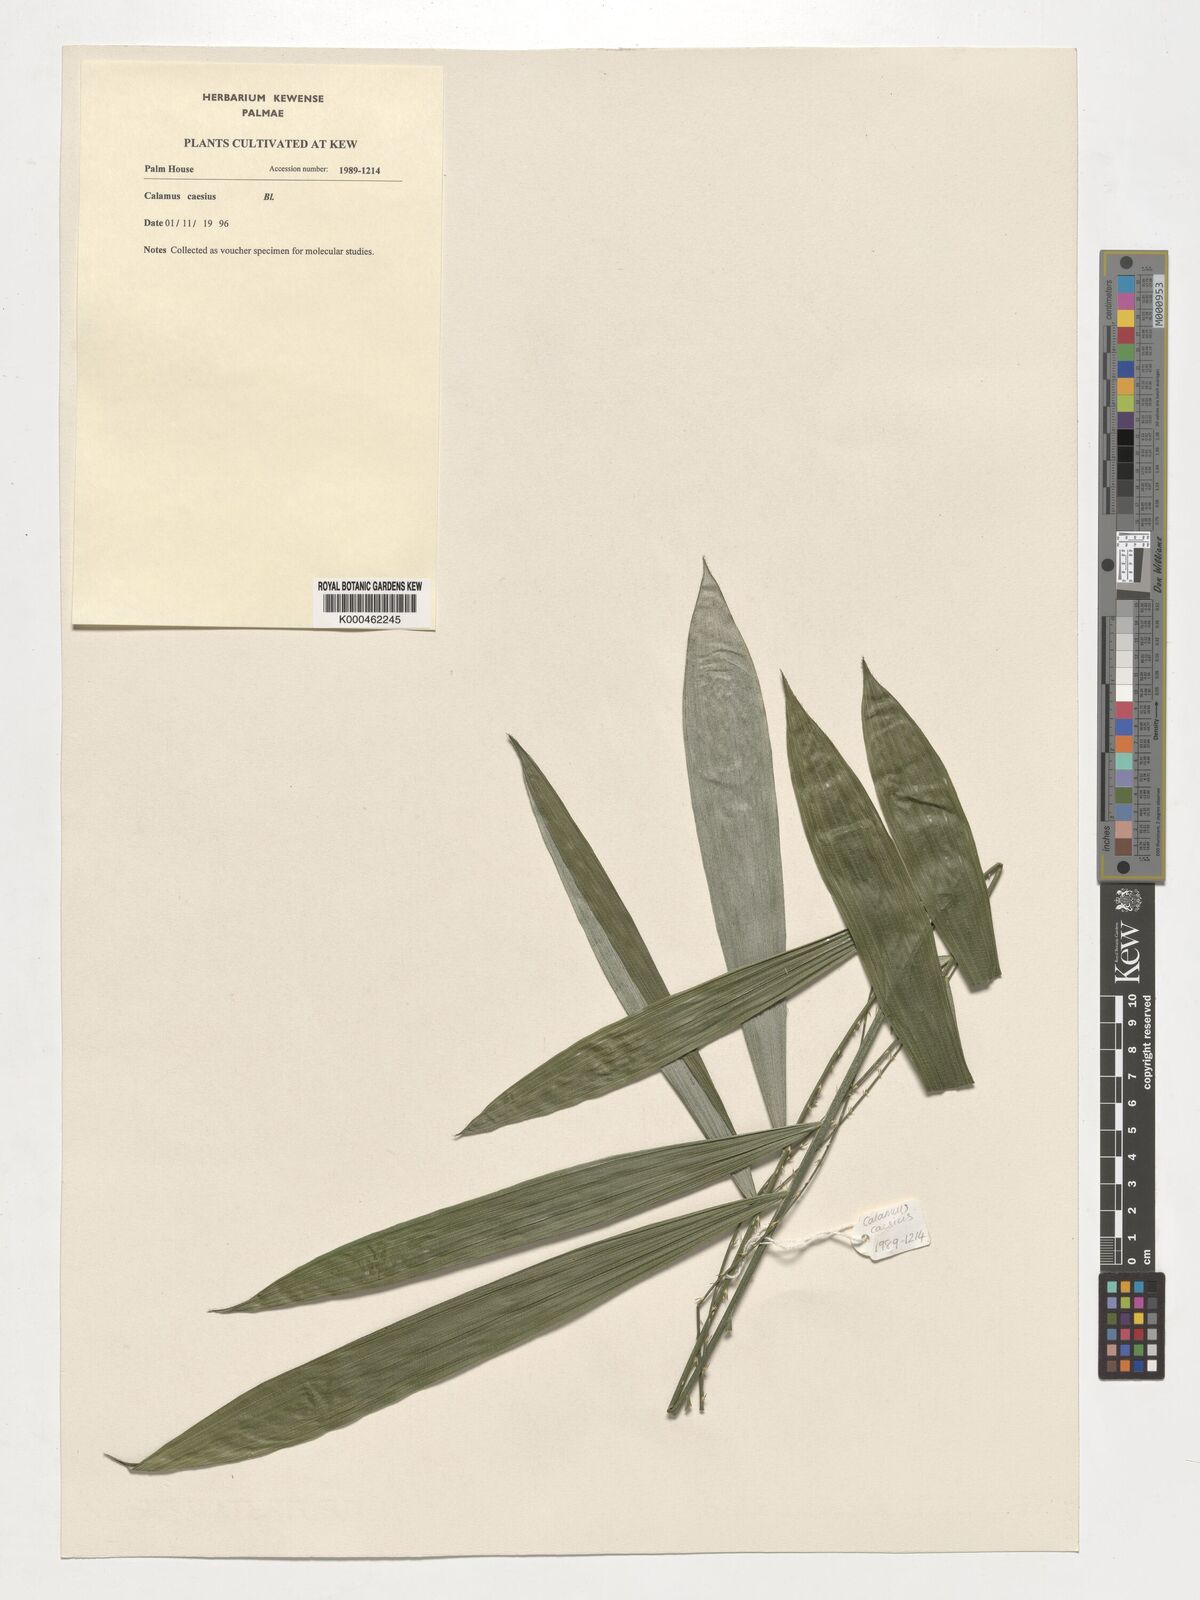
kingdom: Plantae
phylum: Tracheophyta
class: Liliopsida
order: Arecales
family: Arecaceae
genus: Calamus
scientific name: Calamus caesius
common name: Rattan palm
